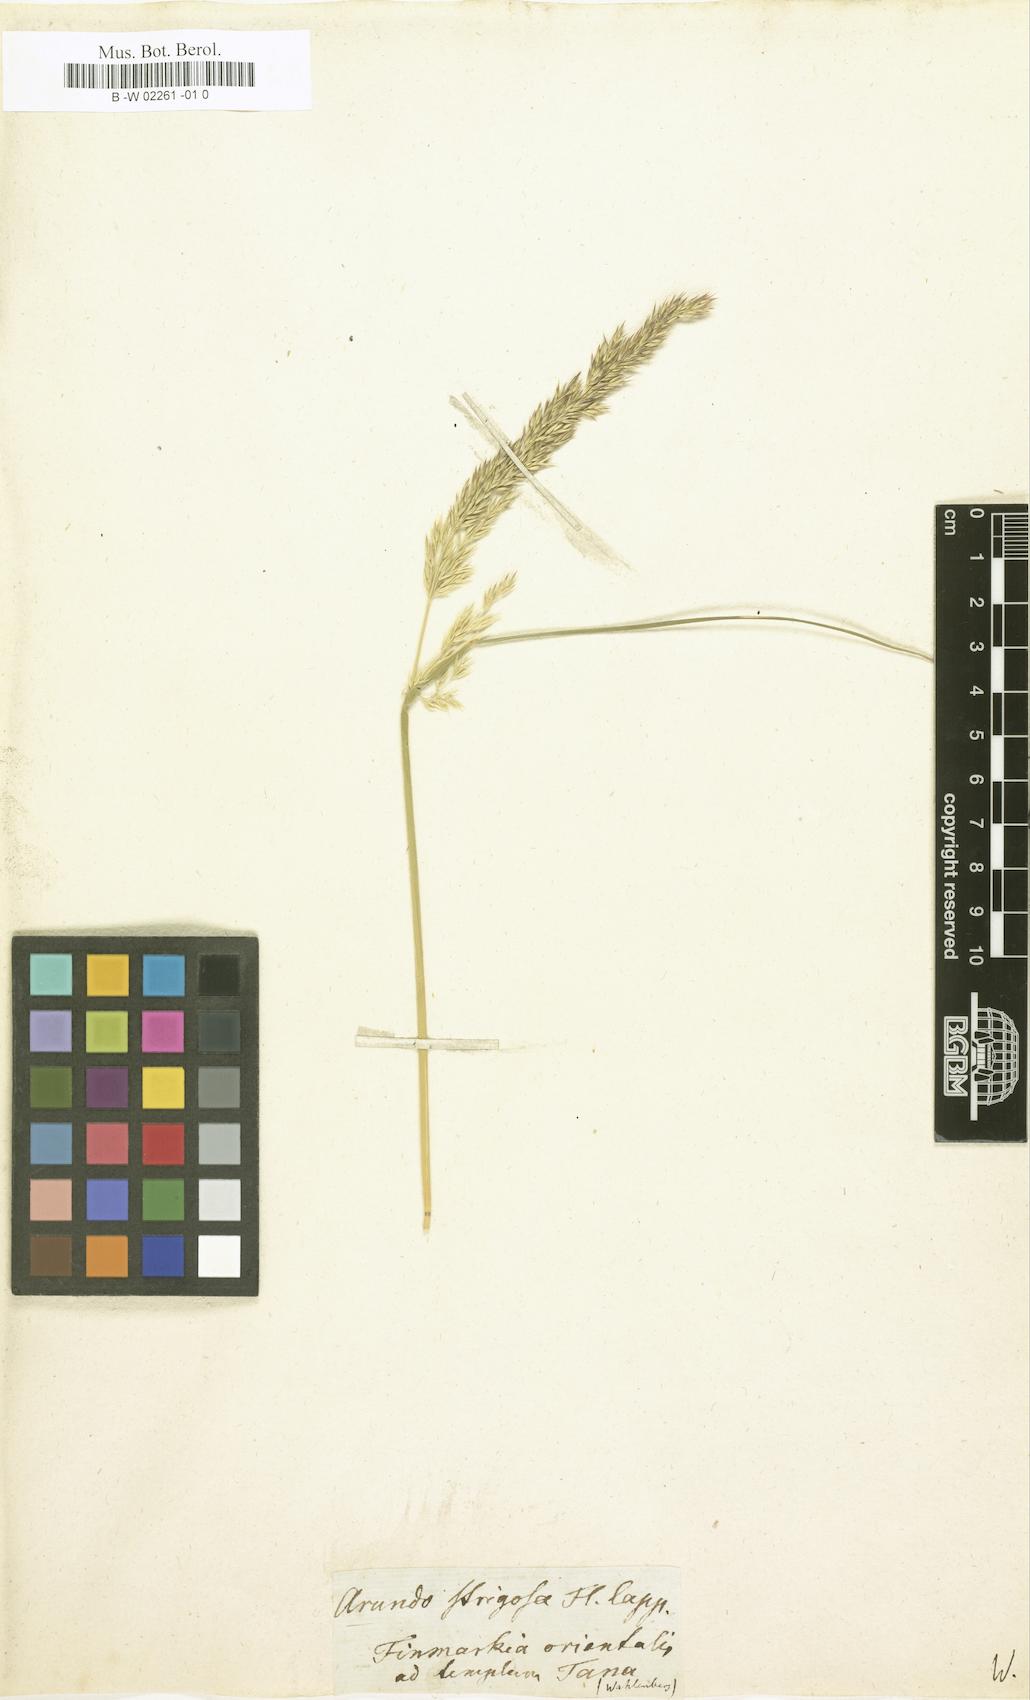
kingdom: Plantae
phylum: Tracheophyta
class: Liliopsida
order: Poales
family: Poaceae
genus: Calamagrostis
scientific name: Calamagrostis strigosa
